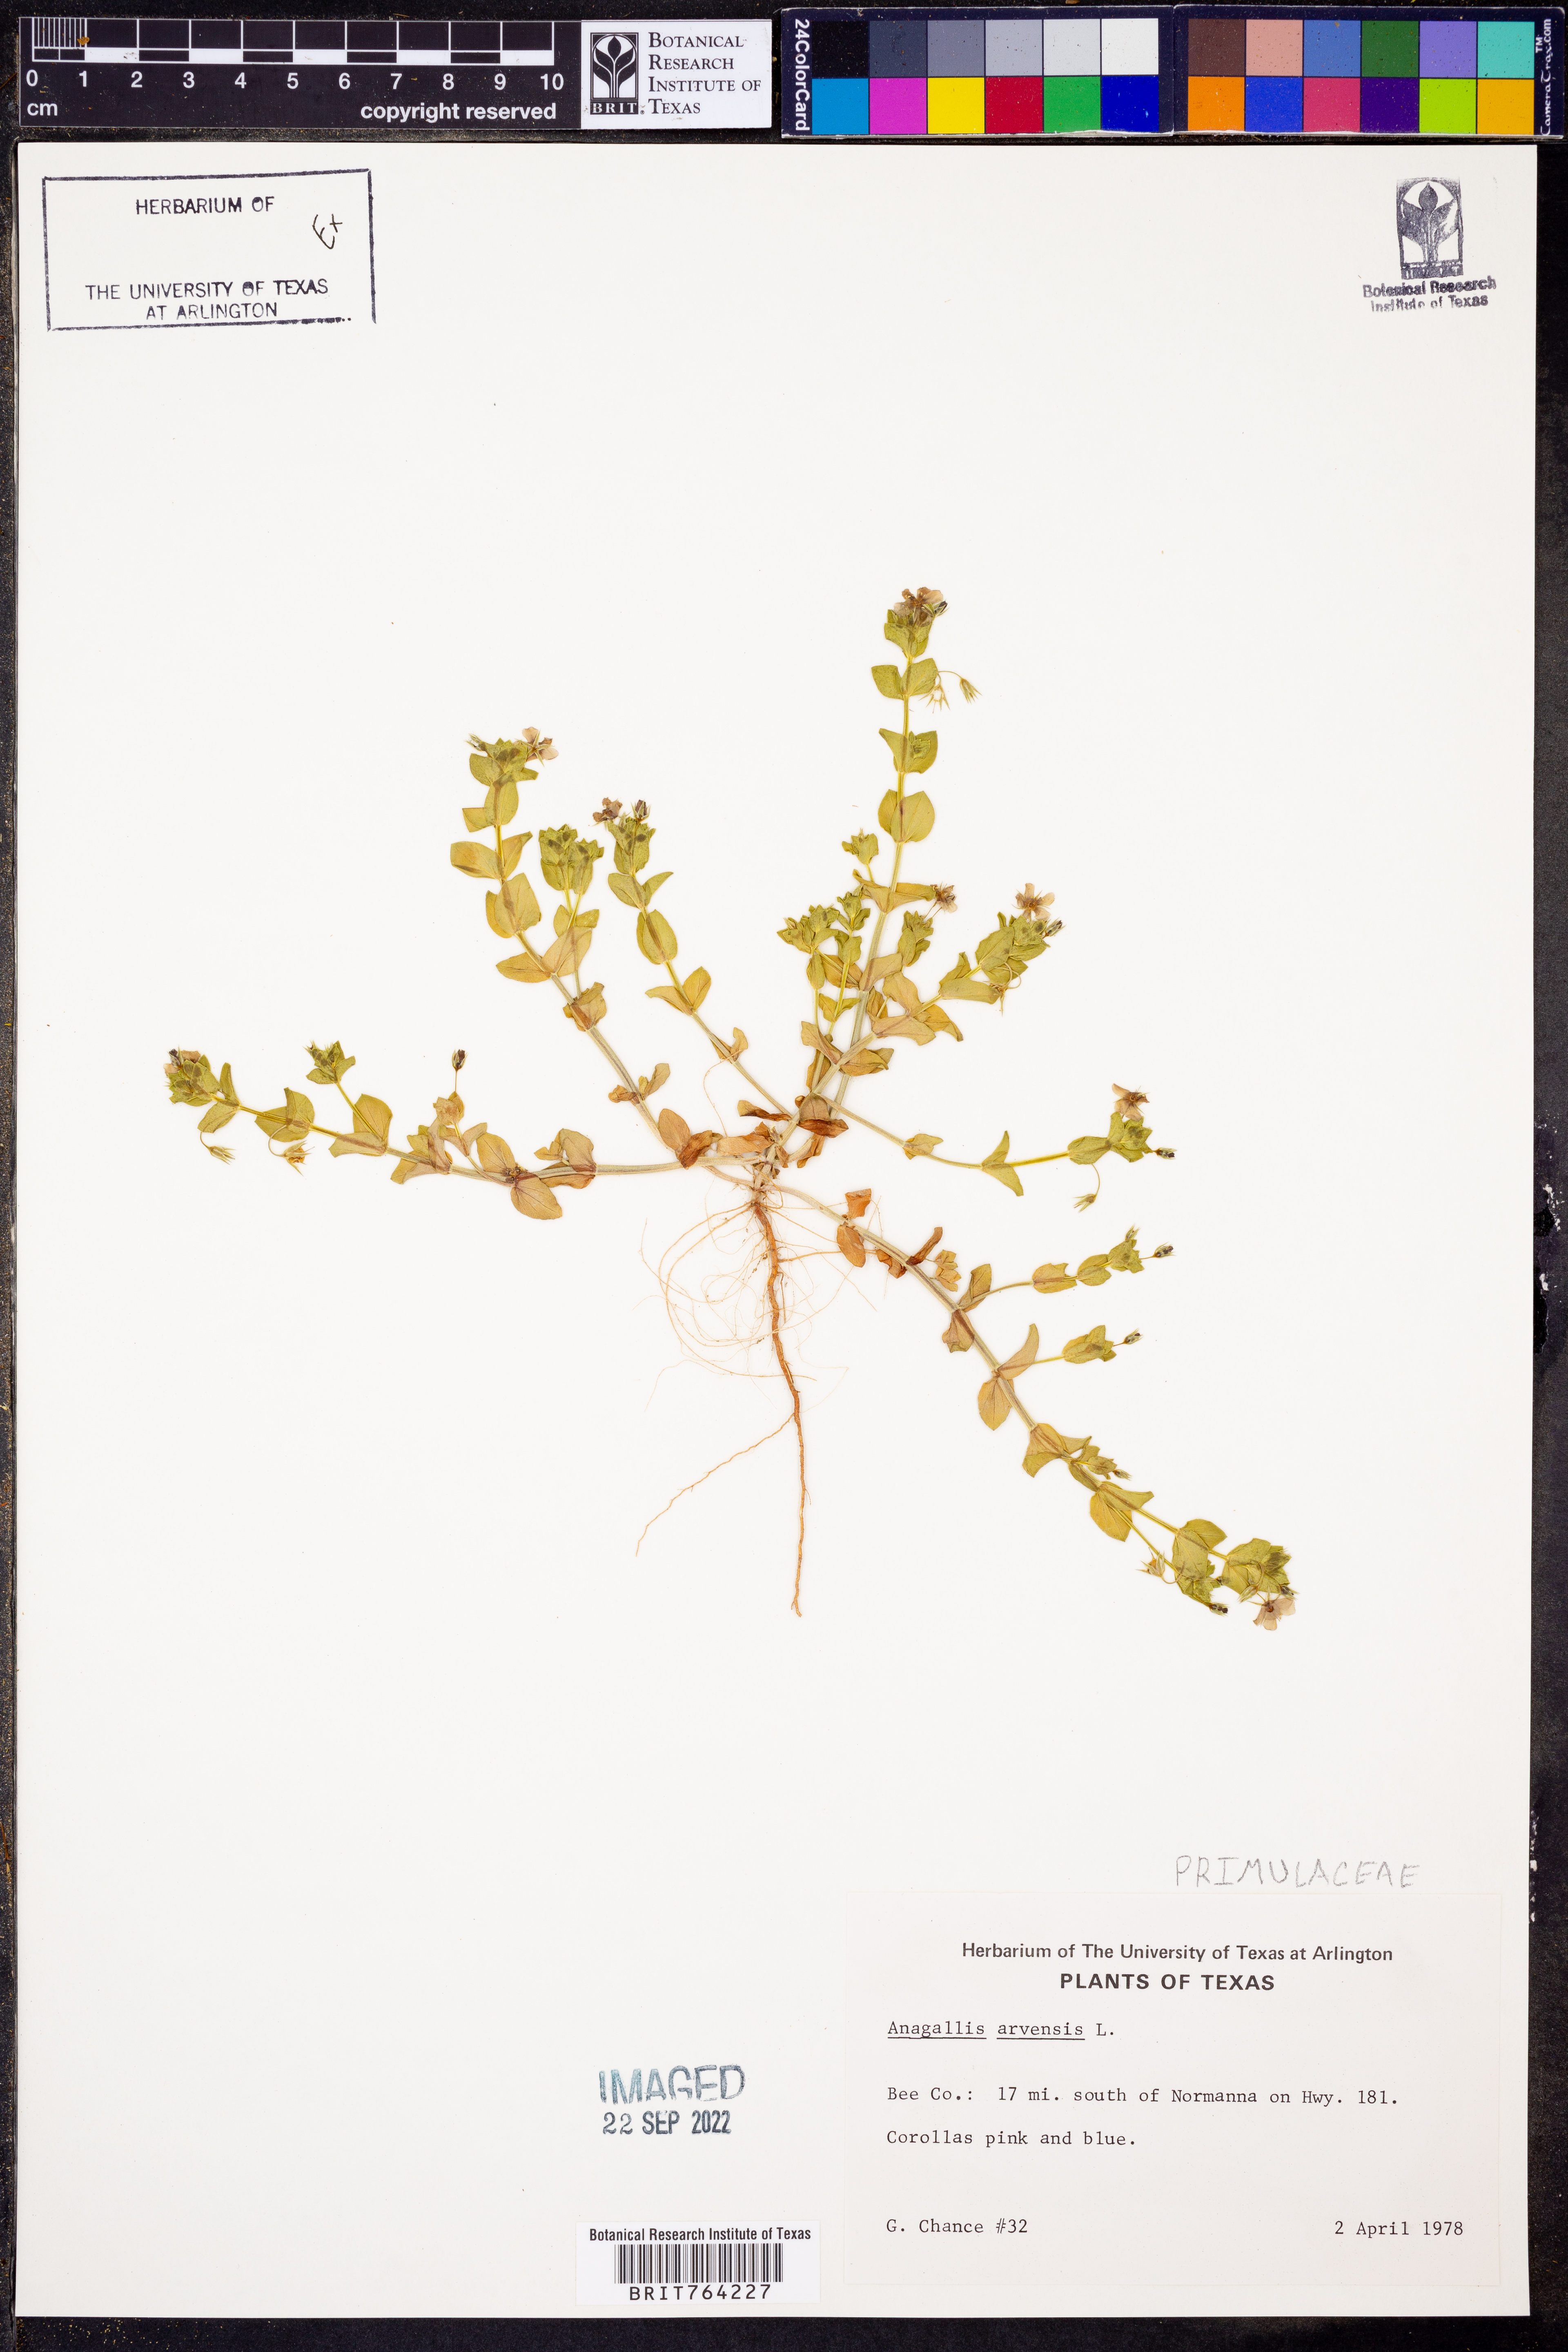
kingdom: Plantae
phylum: Tracheophyta
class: Magnoliopsida
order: Ericales
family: Primulaceae
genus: Lysimachia
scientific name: Lysimachia arvensis
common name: Scarlet pimpernel
